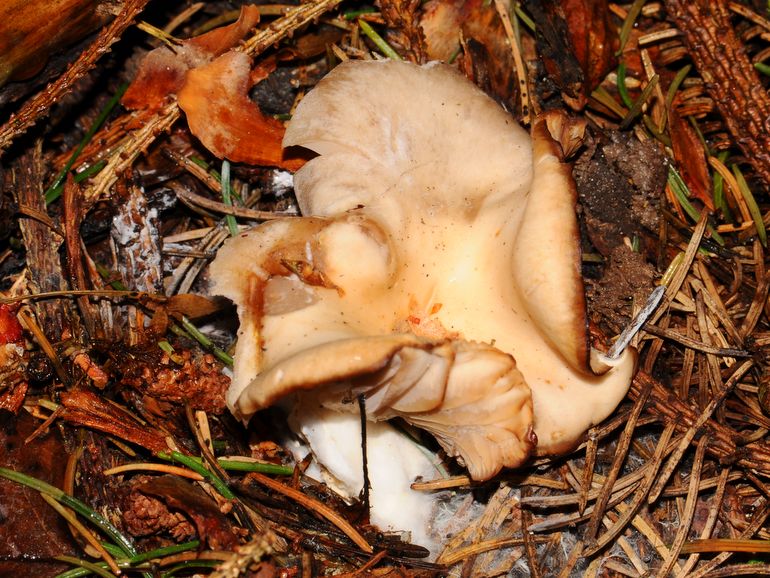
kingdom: Fungi
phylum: Basidiomycota
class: Agaricomycetes
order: Agaricales
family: Tricholomataceae
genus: Clitocybe
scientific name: Clitocybe fragrans
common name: vellugtende tragthat
